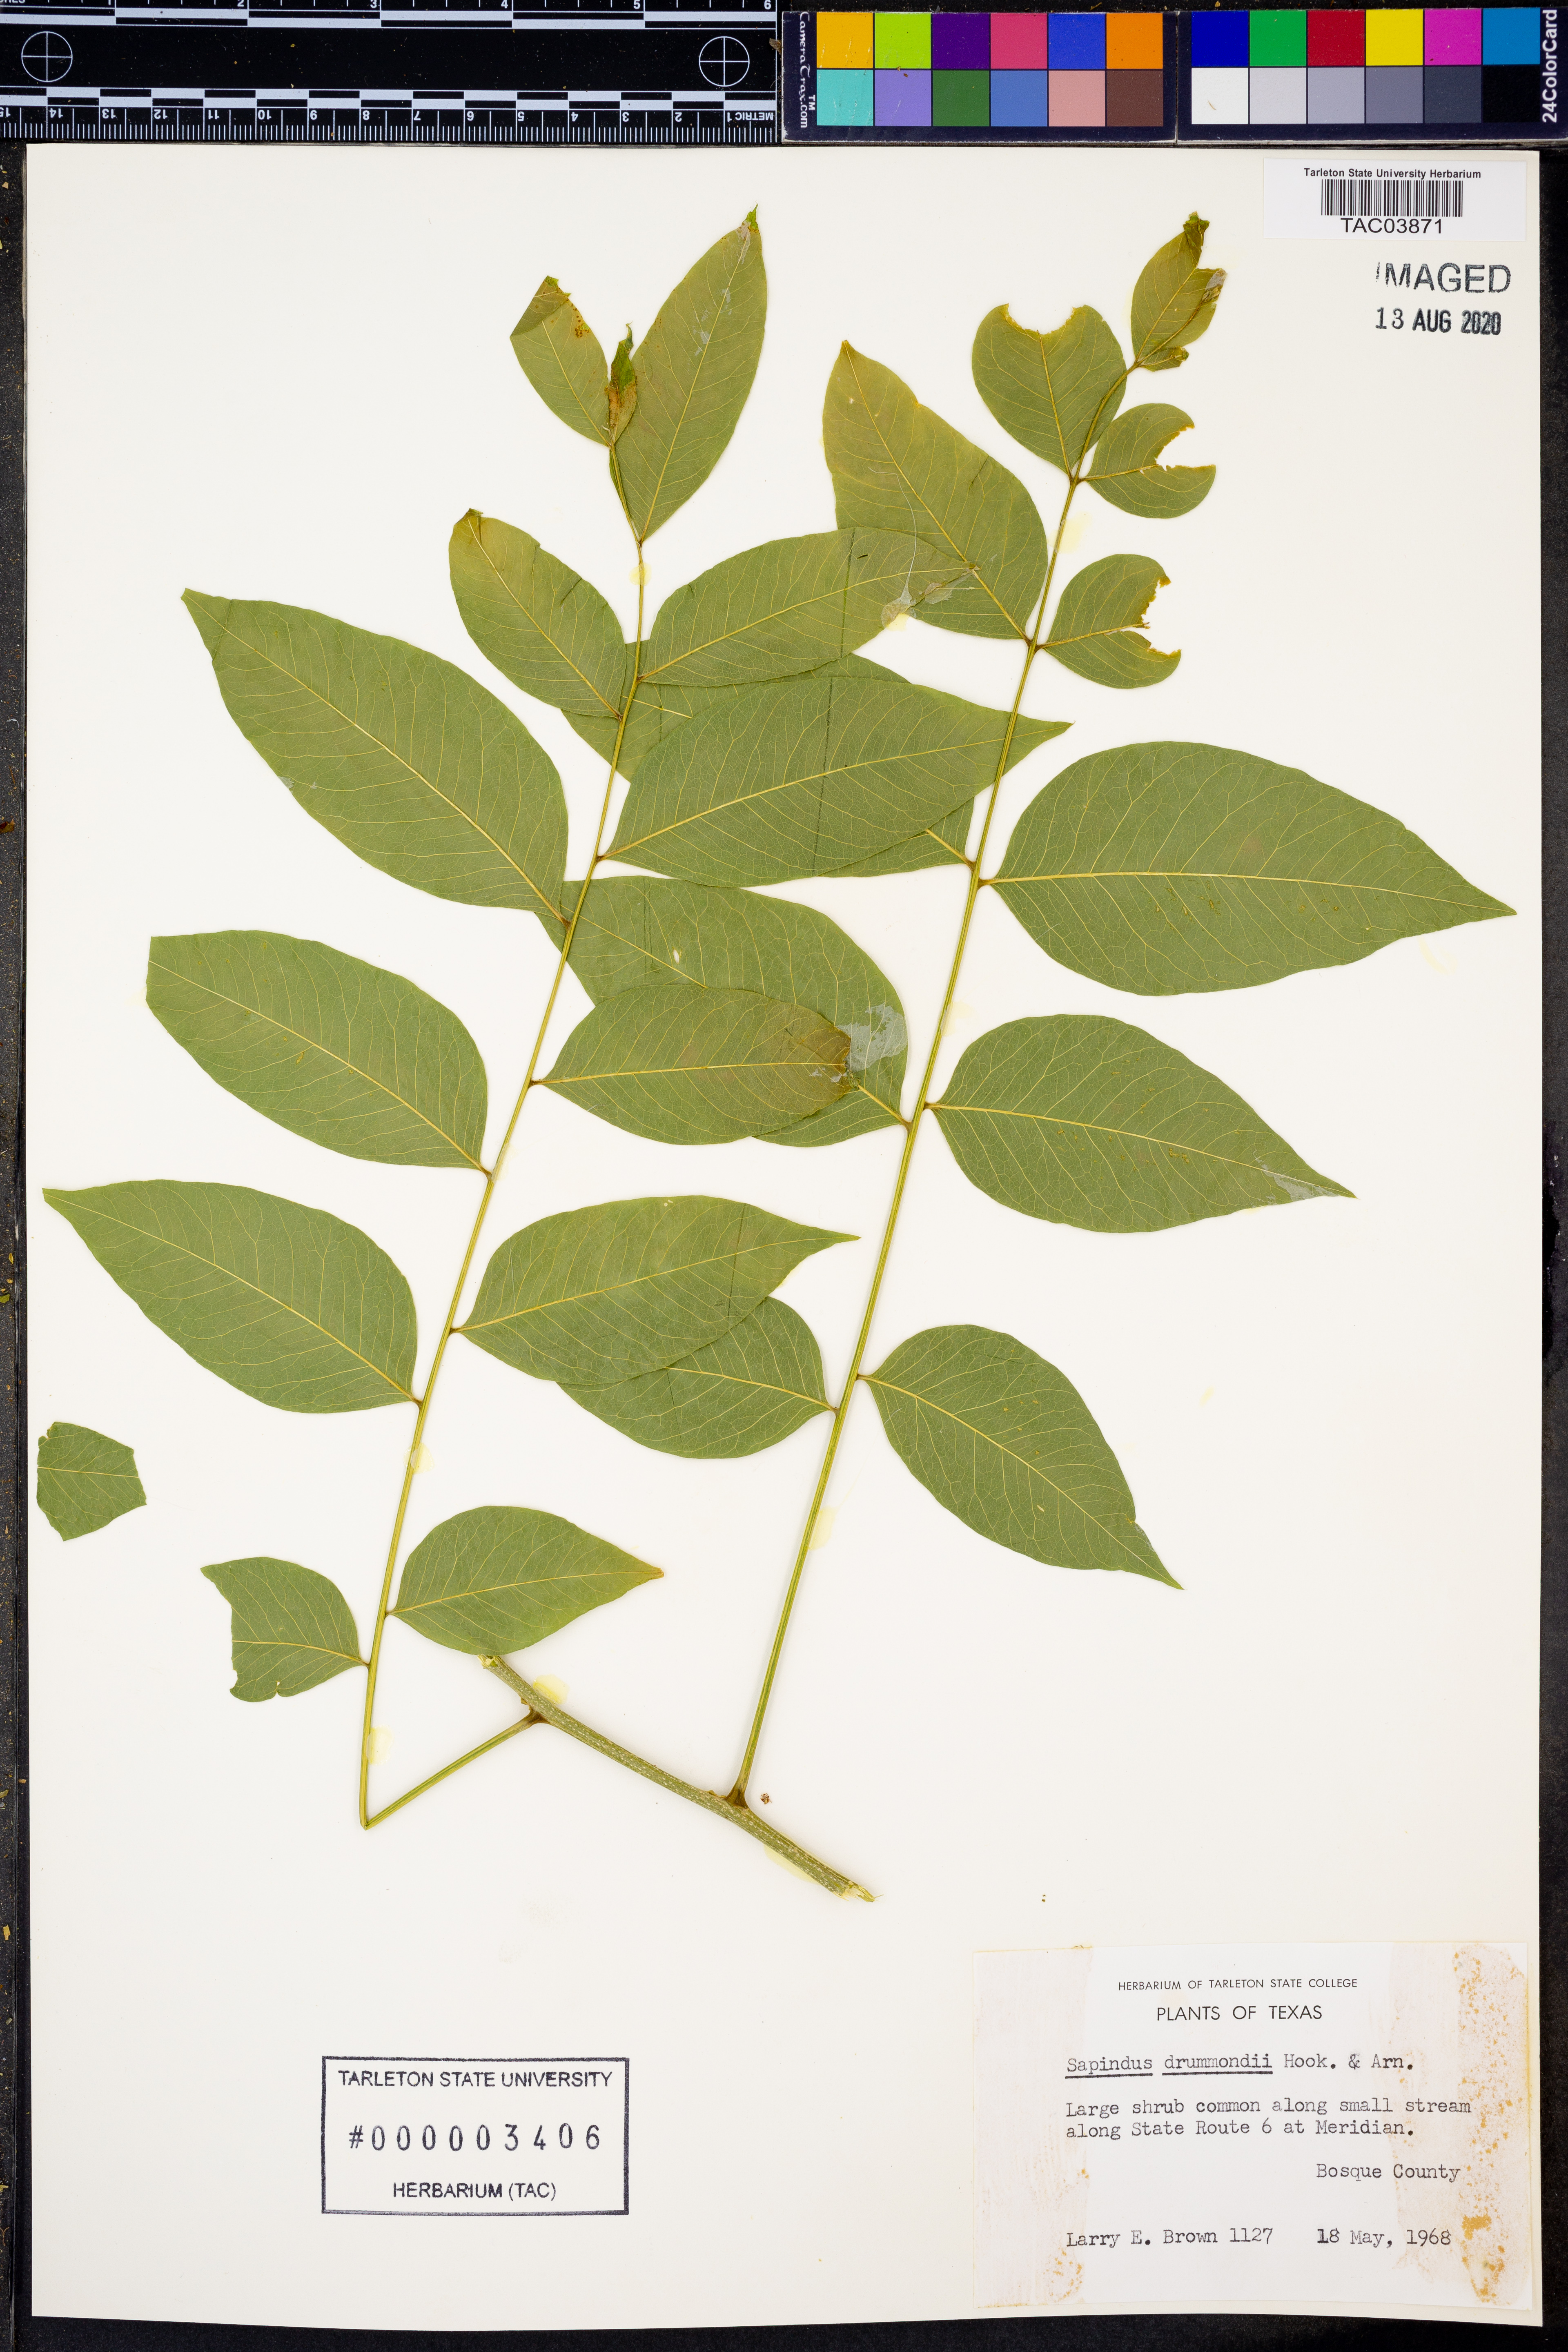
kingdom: Plantae
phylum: Tracheophyta
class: Magnoliopsida
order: Sapindales
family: Sapindaceae
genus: Sapindus
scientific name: Sapindus drummondii
